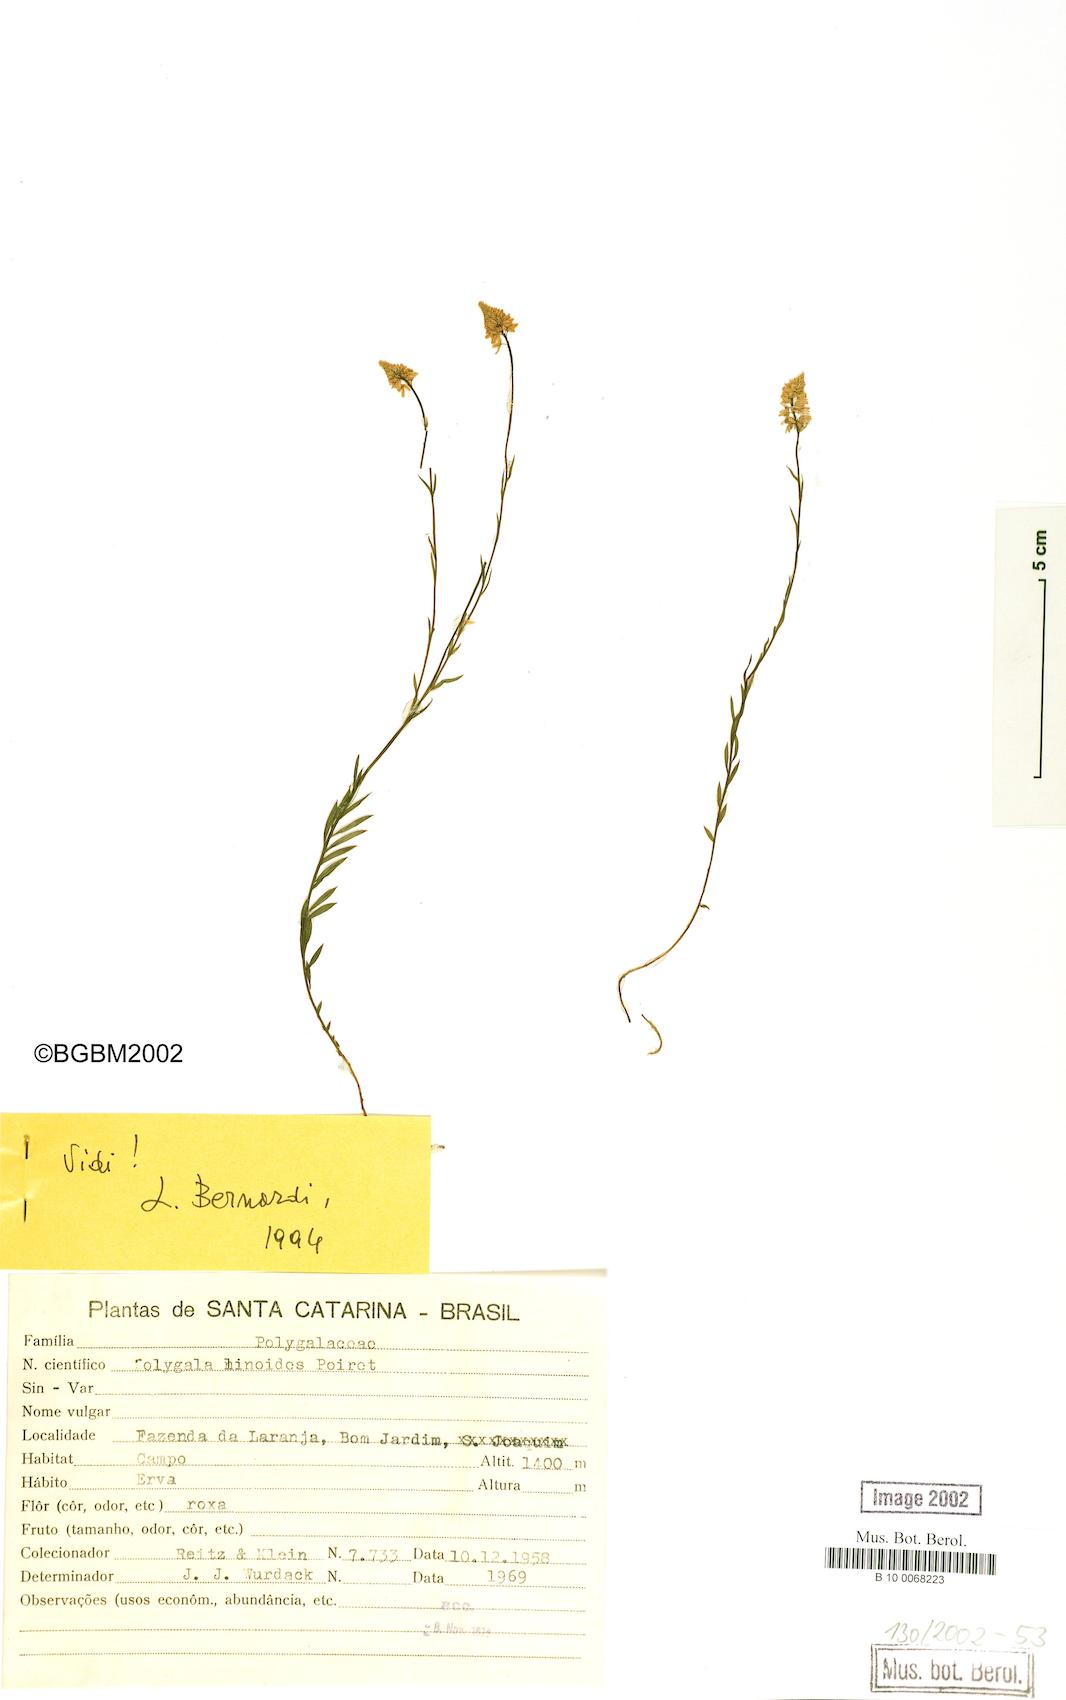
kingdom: Plantae
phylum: Tracheophyta
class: Magnoliopsida
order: Fabales
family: Polygalaceae
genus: Polygala
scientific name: Polygala linoides
